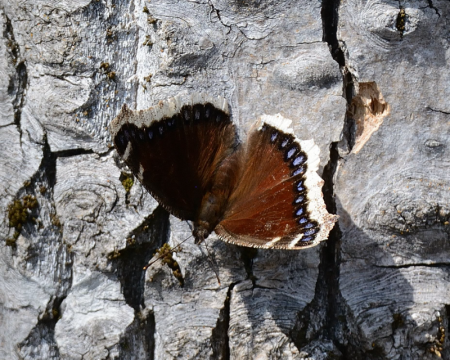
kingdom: Animalia
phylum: Arthropoda
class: Insecta
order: Lepidoptera
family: Nymphalidae
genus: Nymphalis
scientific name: Nymphalis antiopa
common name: Mourning Cloak
